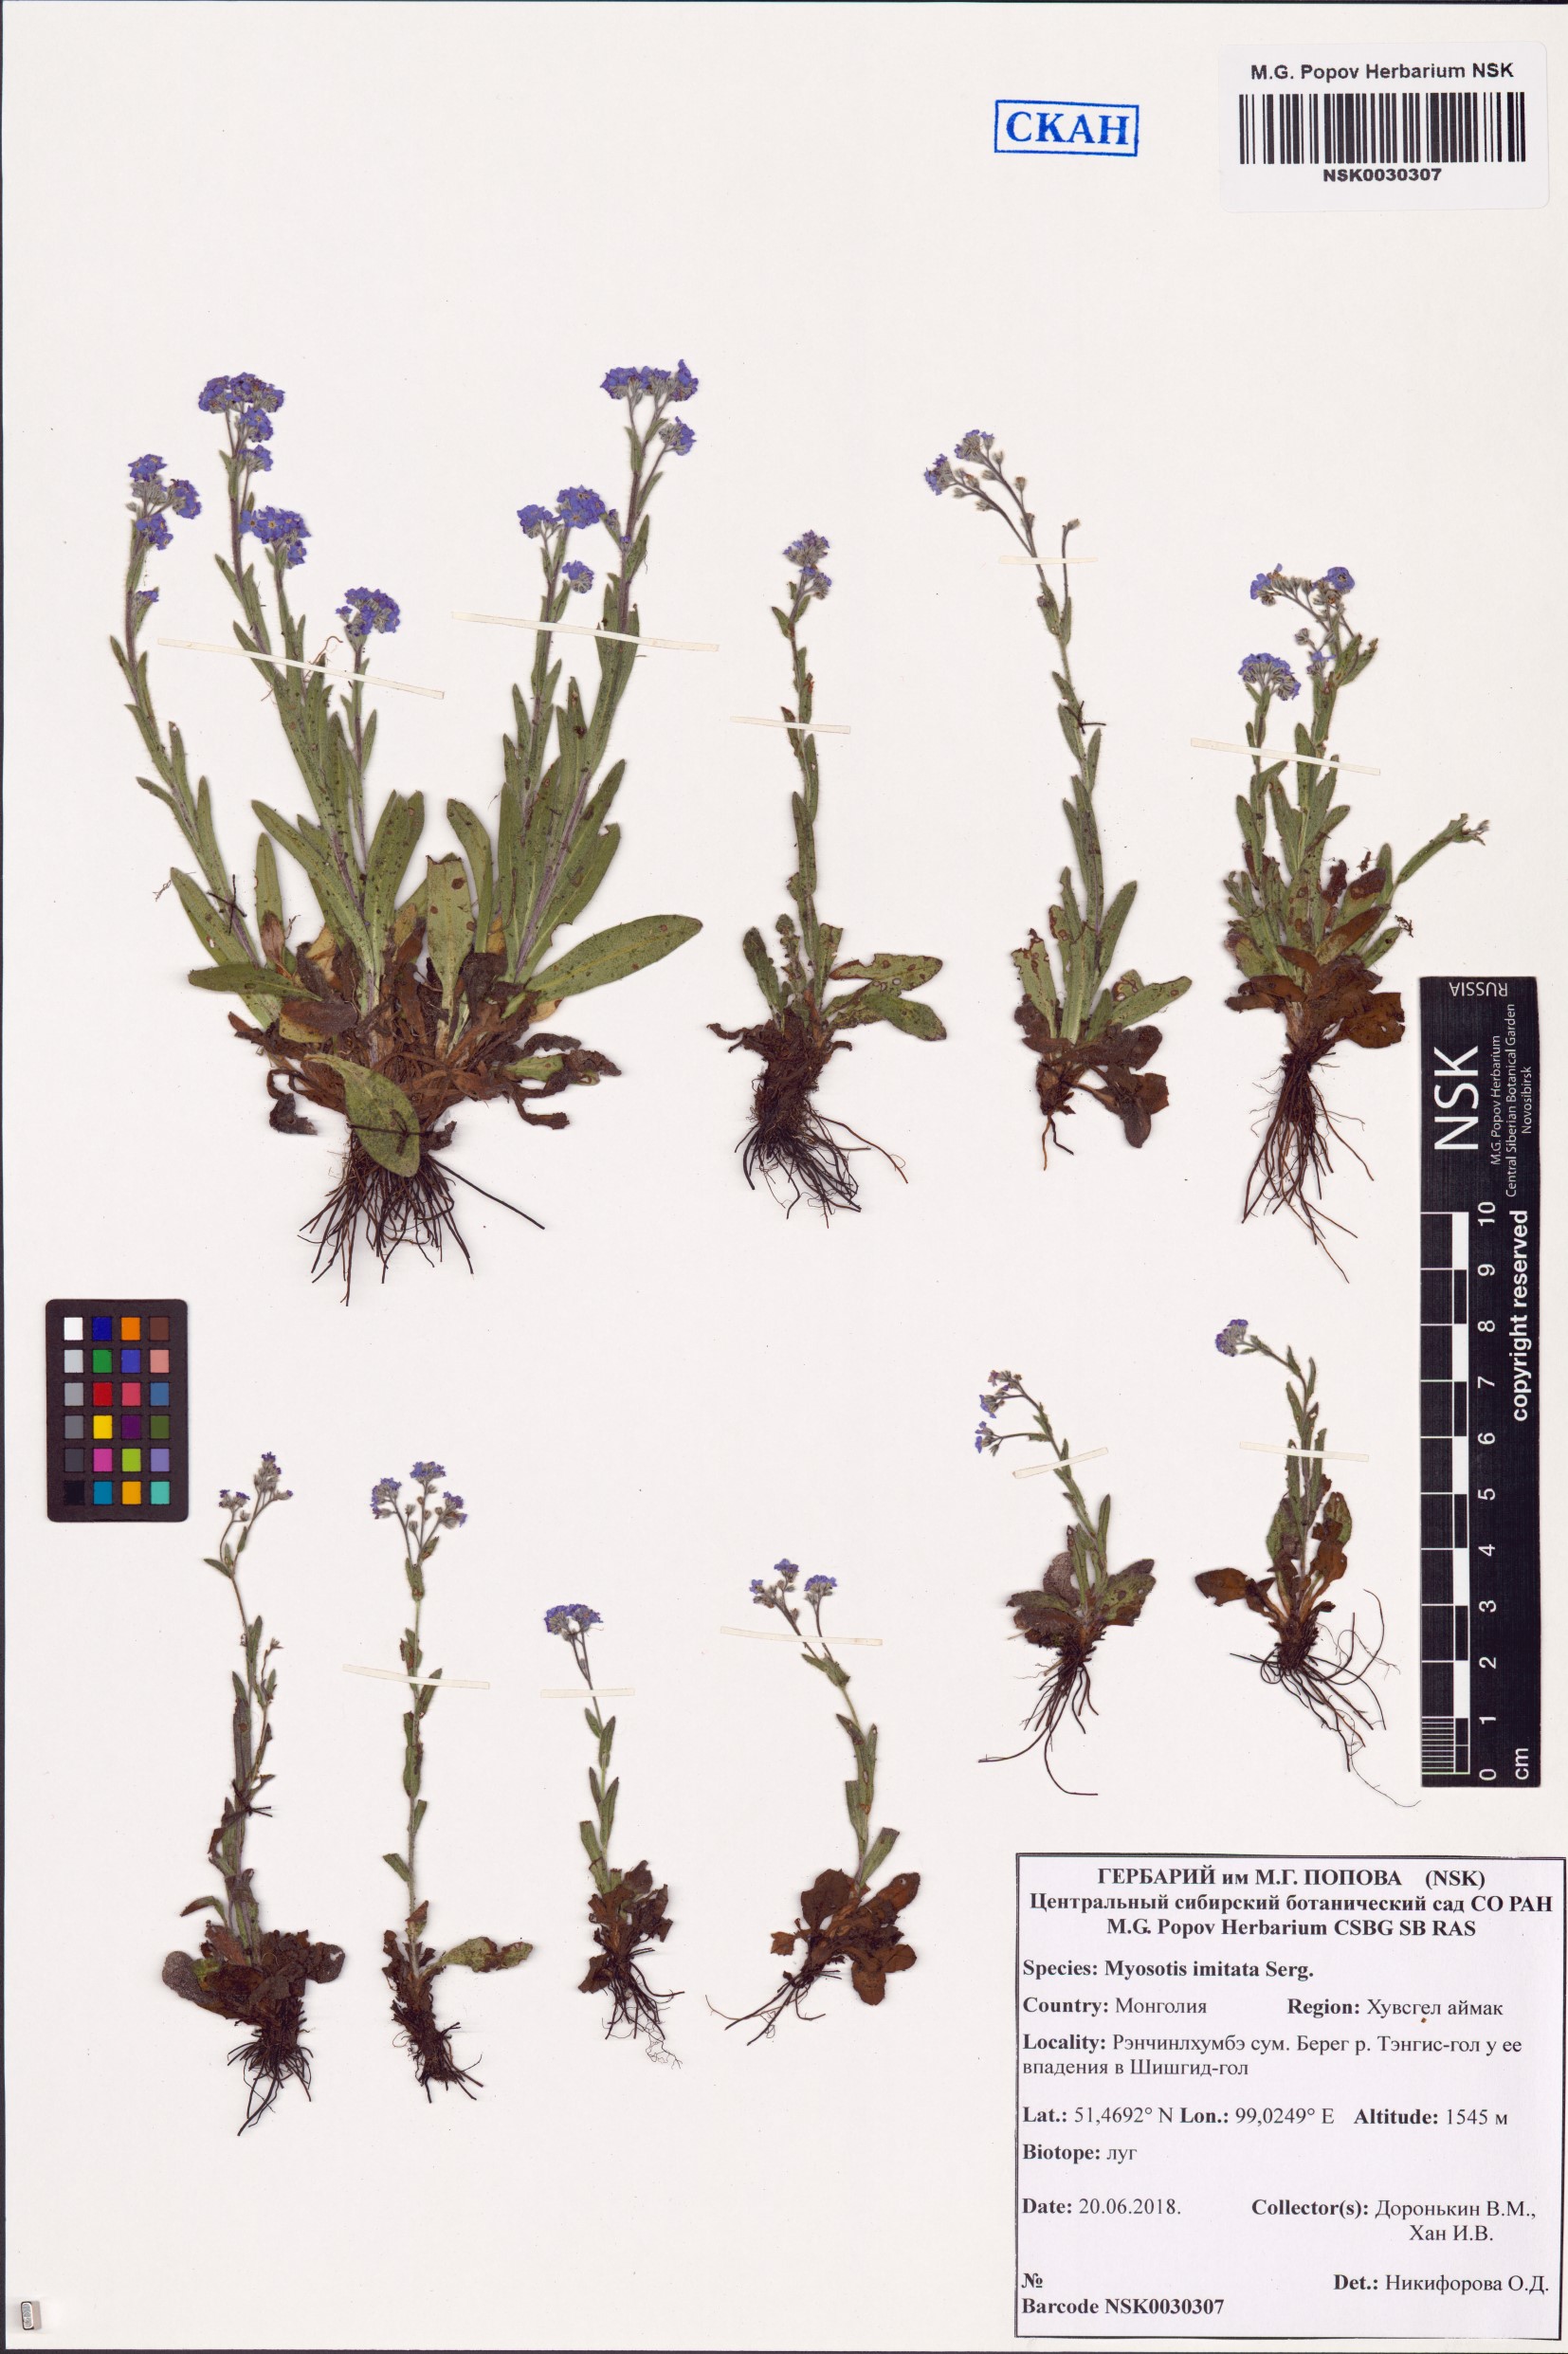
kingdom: Plantae
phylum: Tracheophyta
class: Magnoliopsida
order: Boraginales
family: Boraginaceae
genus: Myosotis
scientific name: Myosotis imitata
